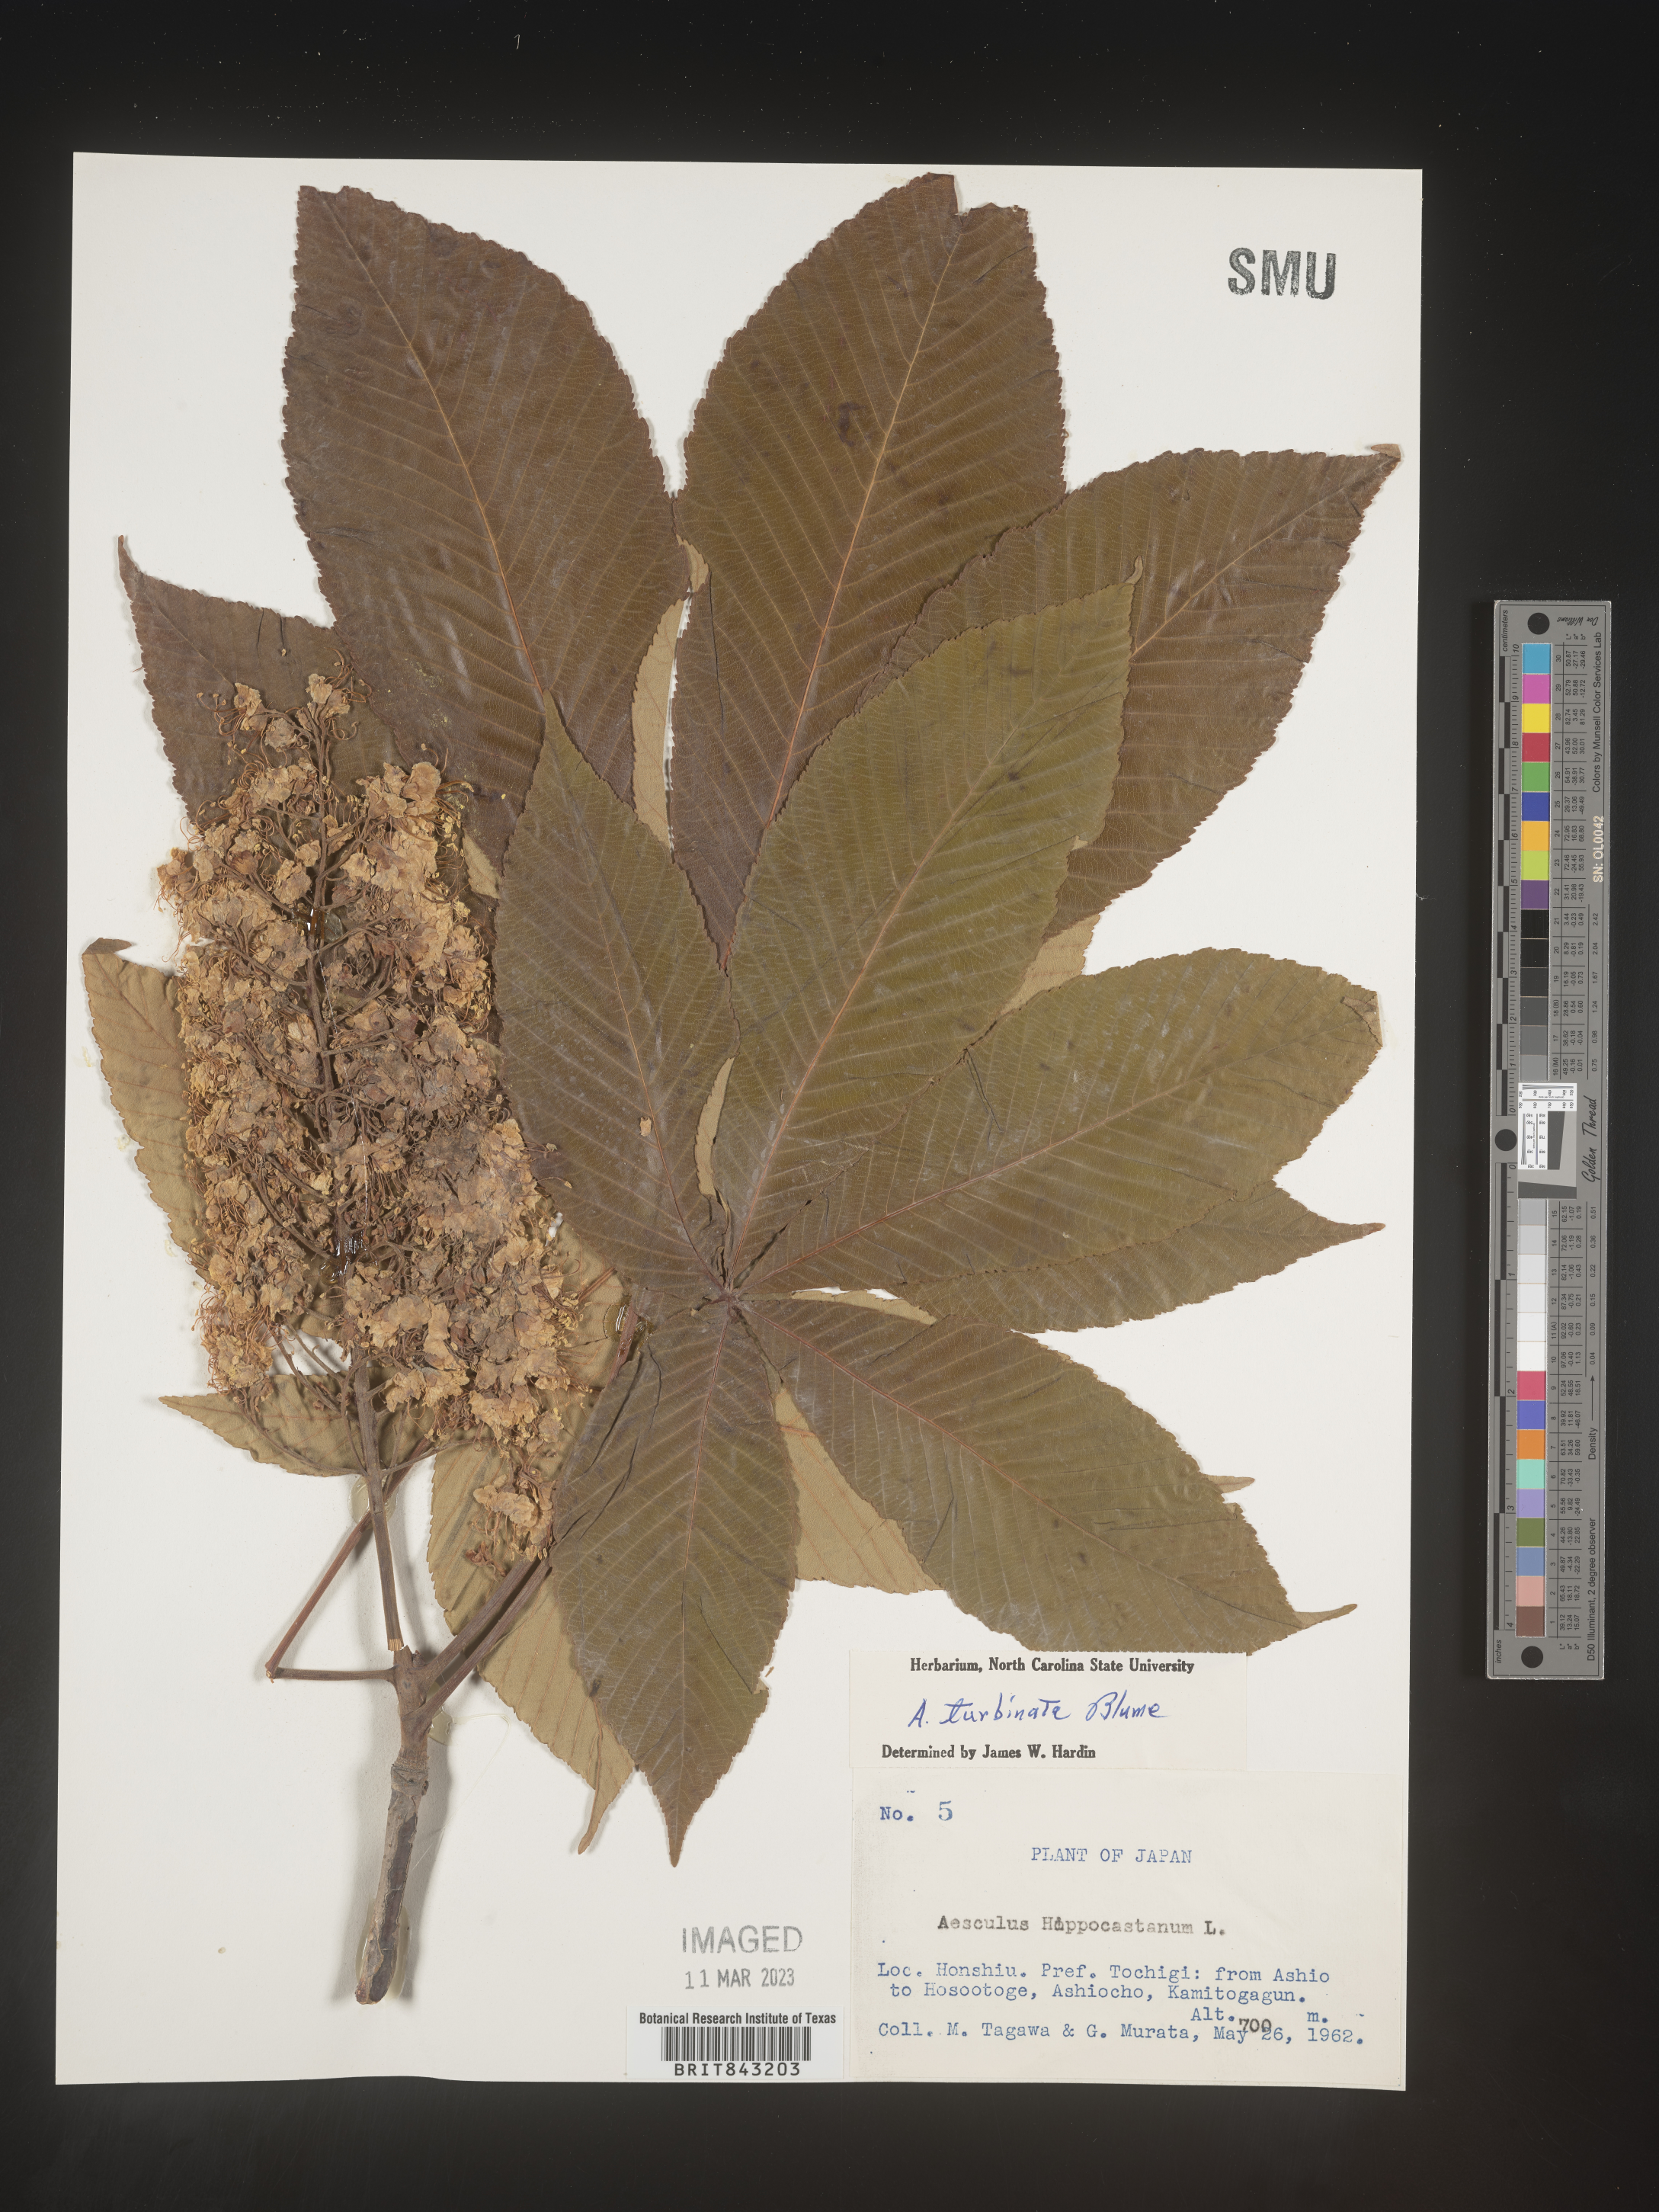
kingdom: Plantae
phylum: Tracheophyta
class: Magnoliopsida
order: Sapindales
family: Sapindaceae
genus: Aesculus
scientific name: Aesculus turbinata
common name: Japanese horse-chestnut
